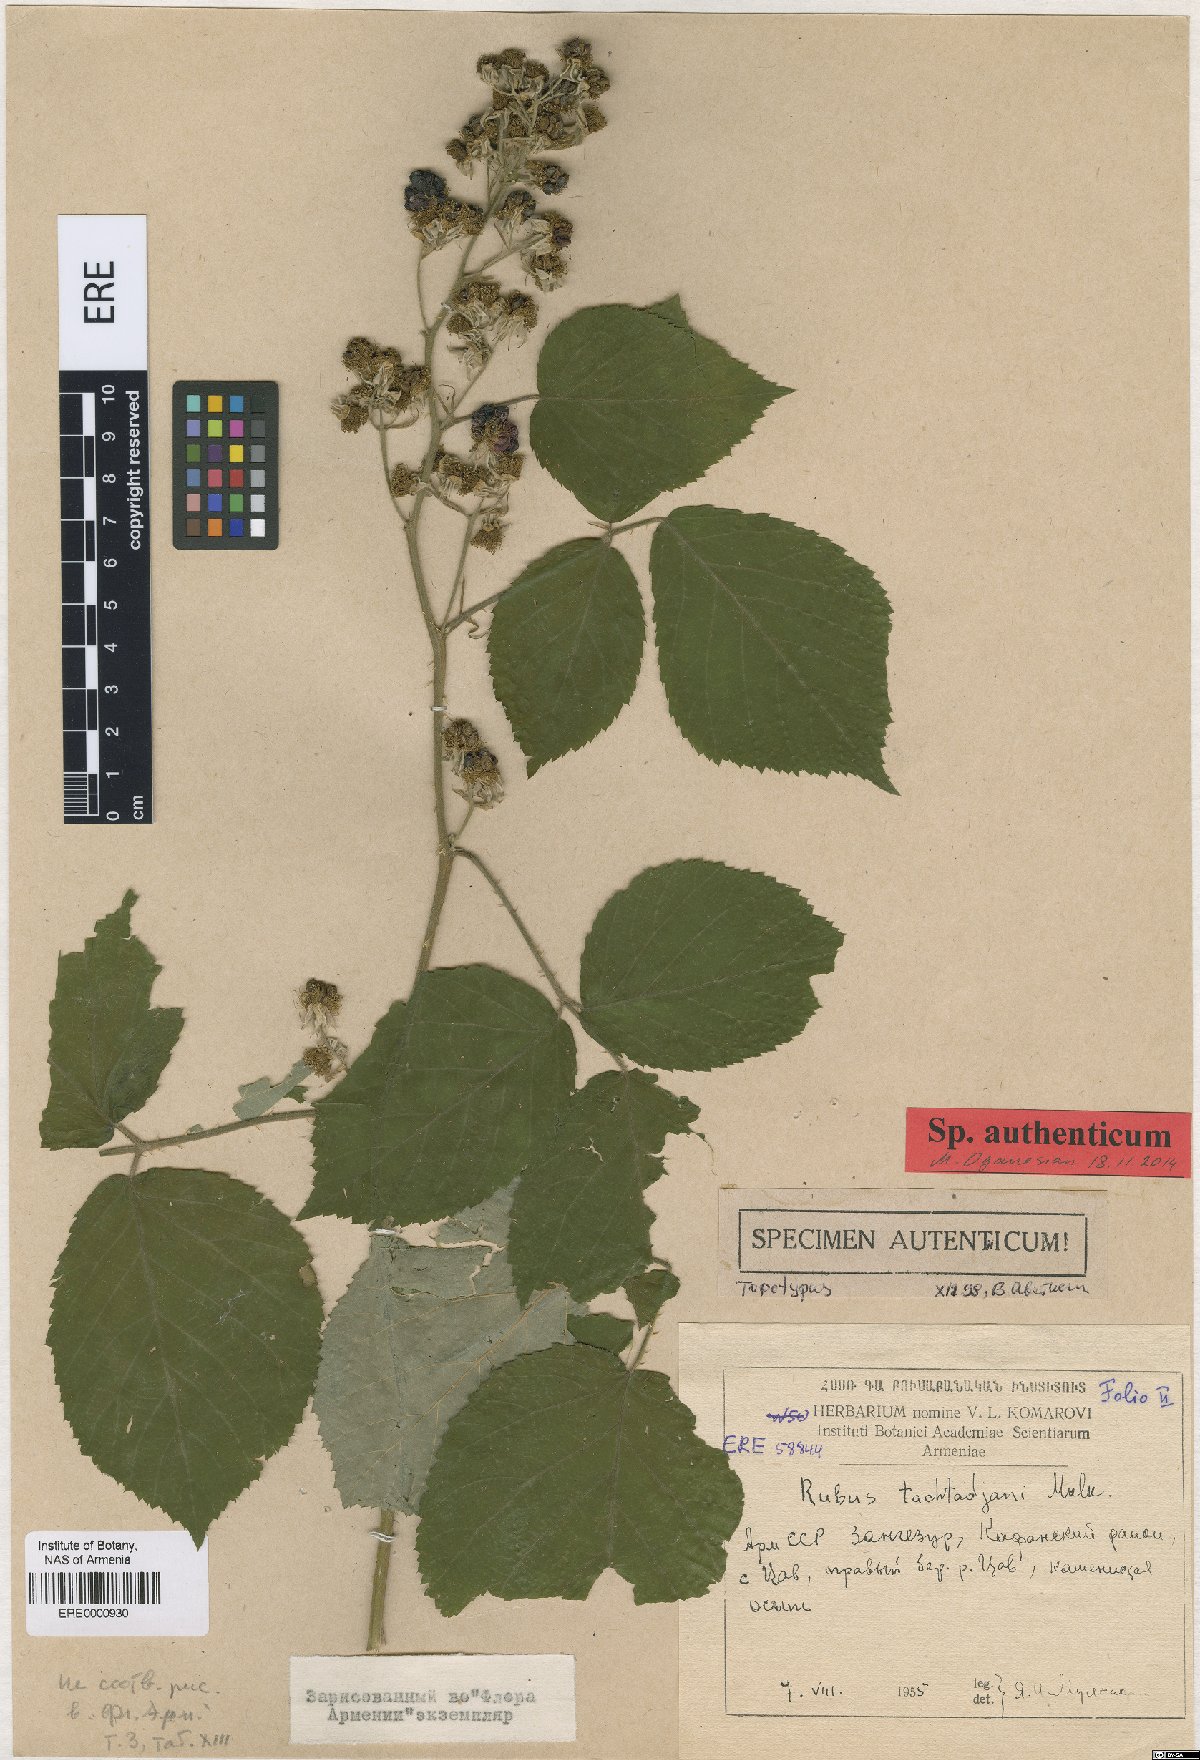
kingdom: Plantae
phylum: Tracheophyta
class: Magnoliopsida
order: Rosales
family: Rosaceae
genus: Rubus
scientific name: Rubus takhtadjanii
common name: Takhtadjan's blackberry
